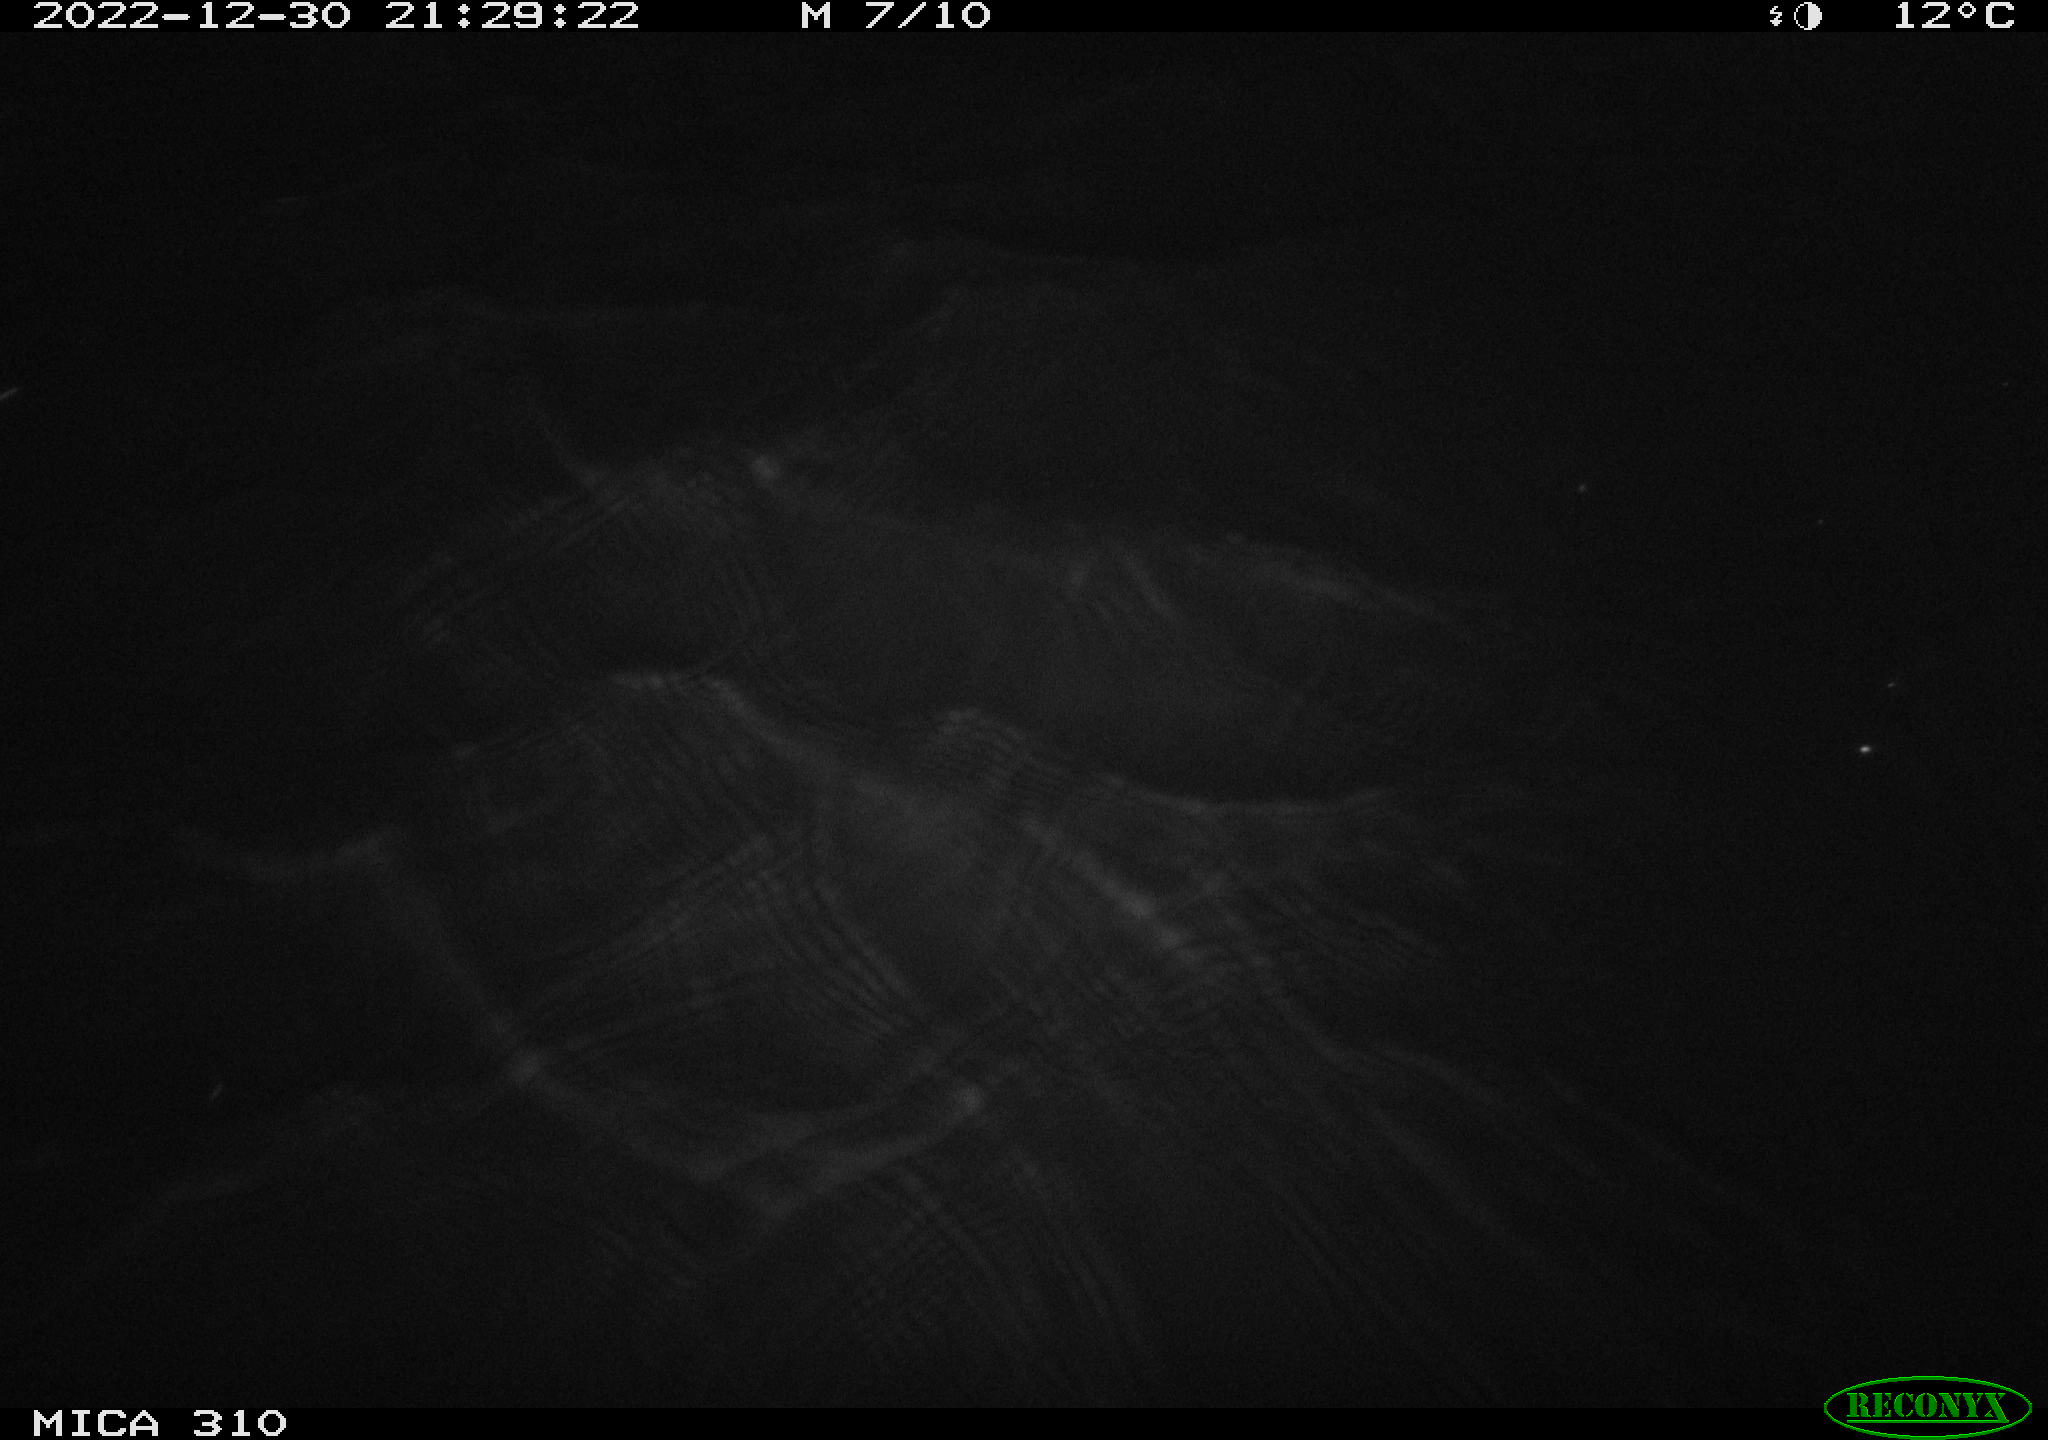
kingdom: Animalia
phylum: Chordata
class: Mammalia
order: Rodentia
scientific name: Rodentia
